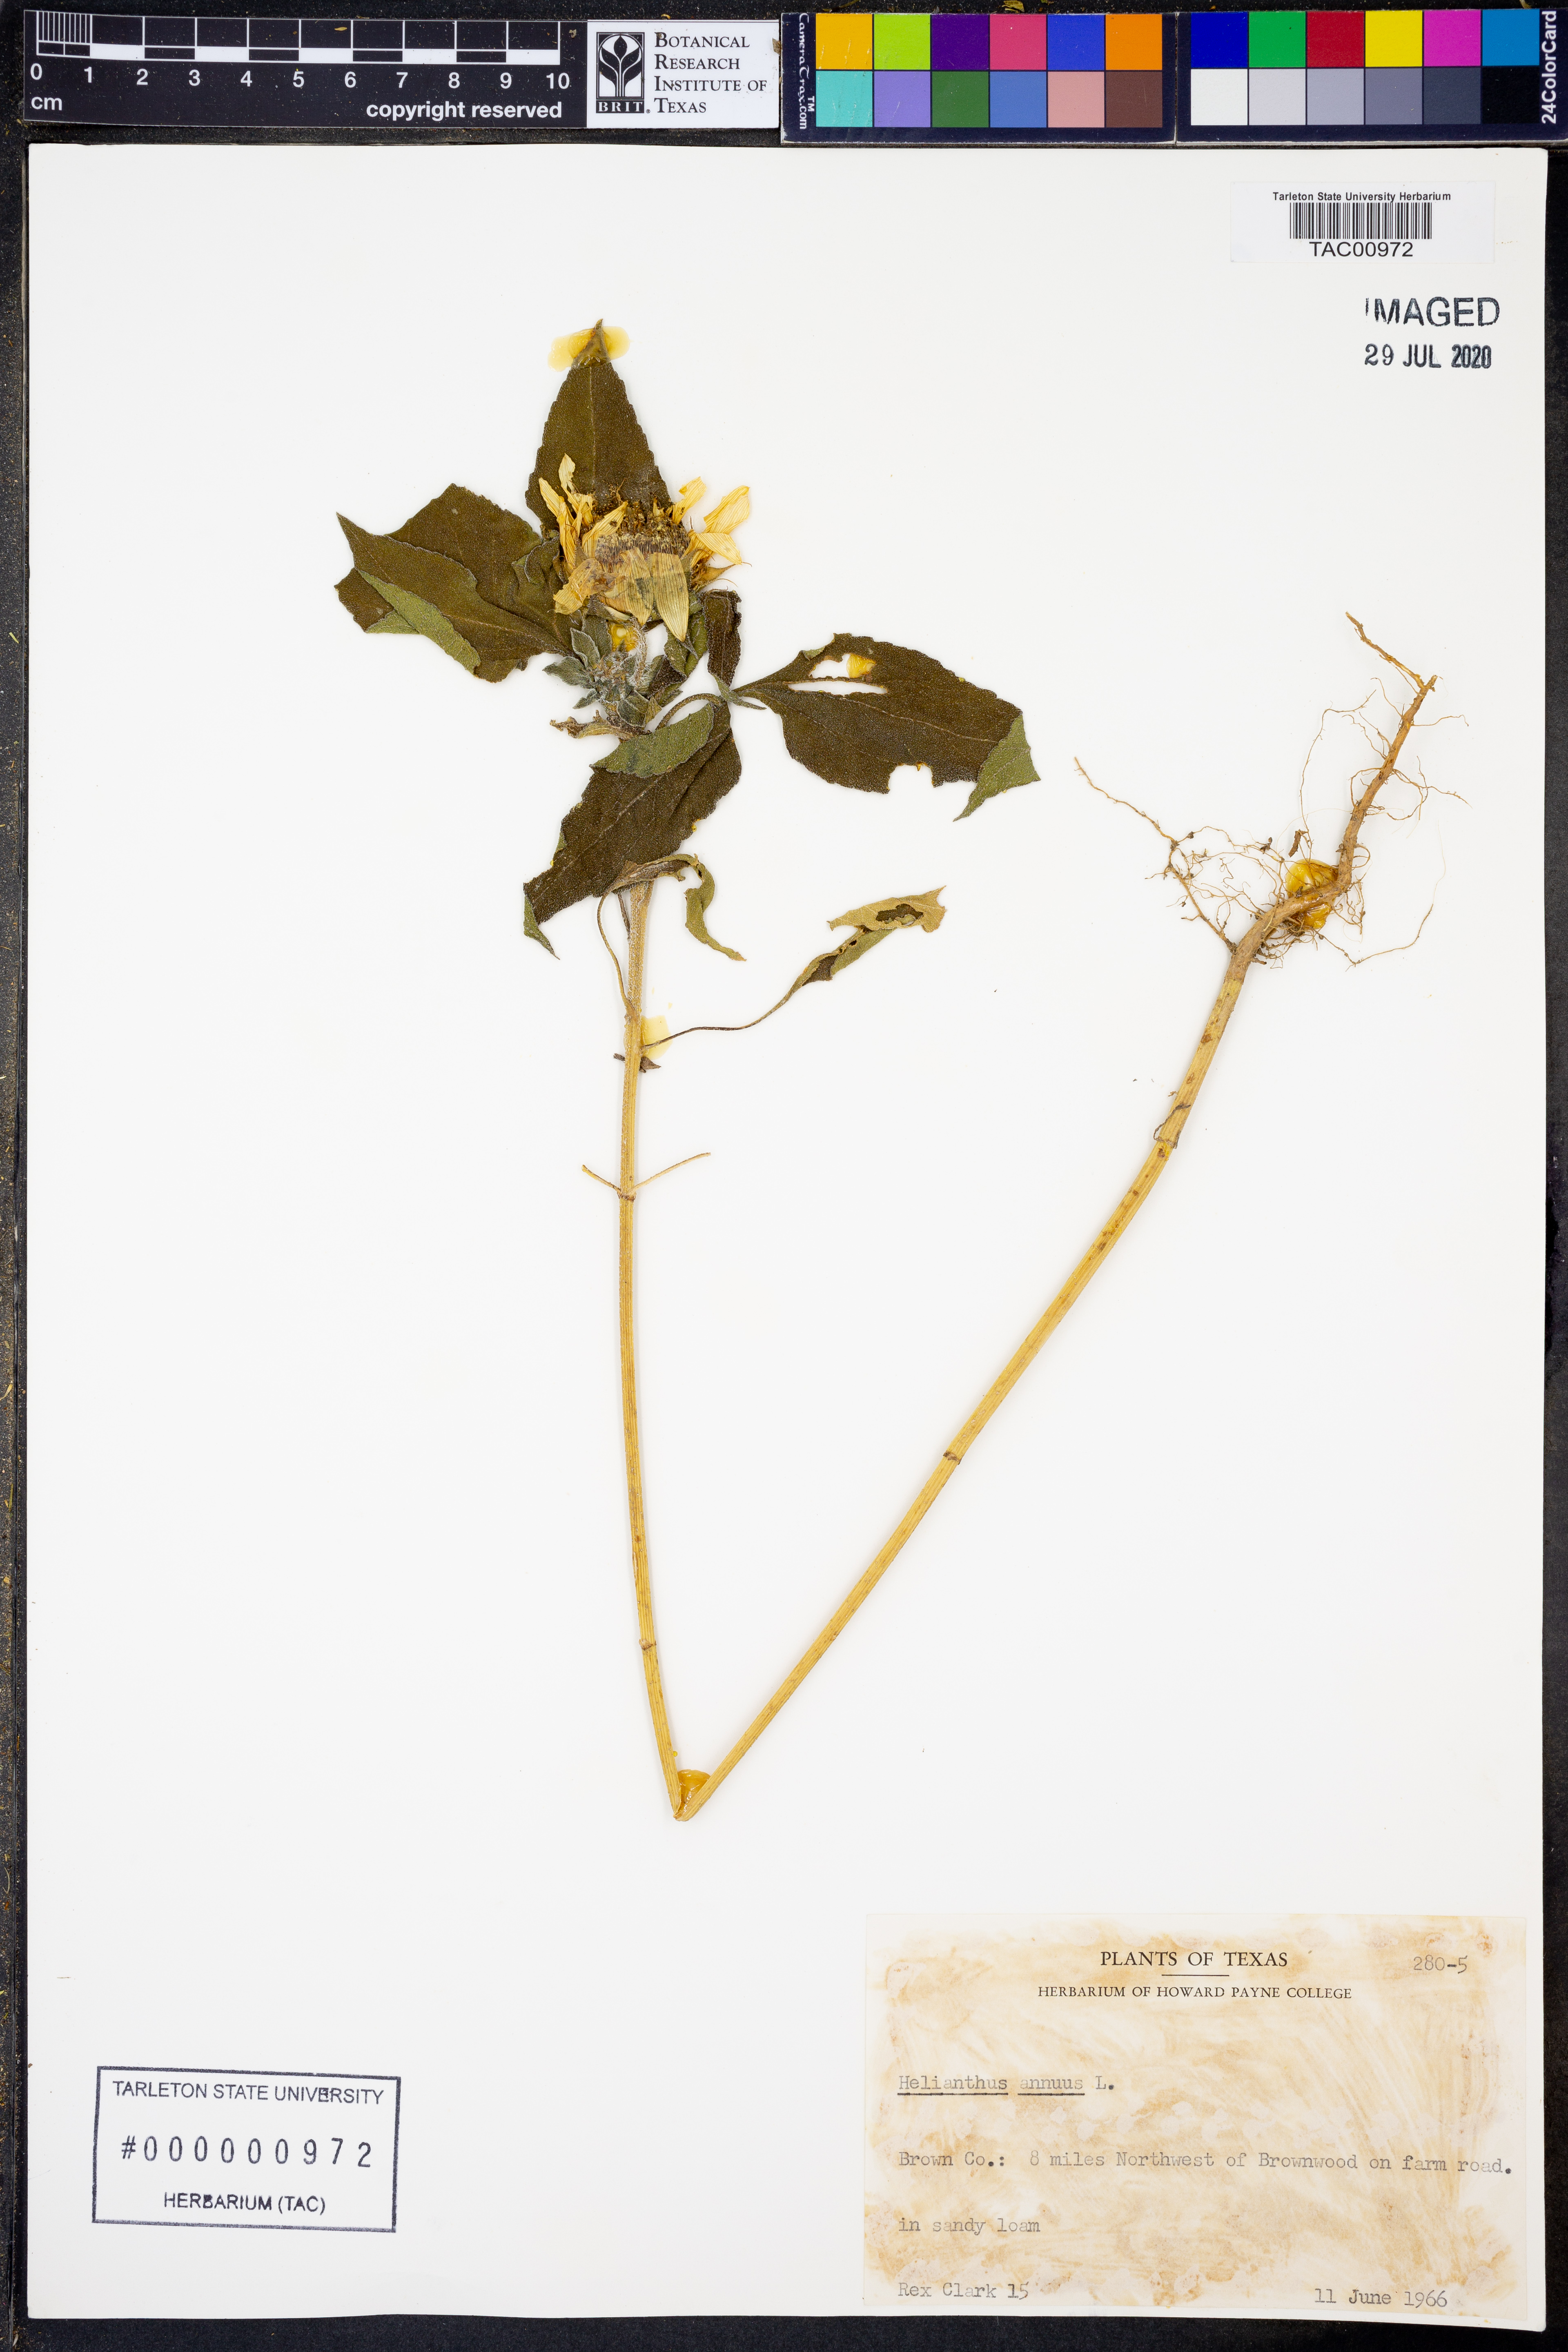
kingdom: Plantae
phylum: Tracheophyta
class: Magnoliopsida
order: Asterales
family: Asteraceae
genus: Helianthus
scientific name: Helianthus annuus
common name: Sunflower
